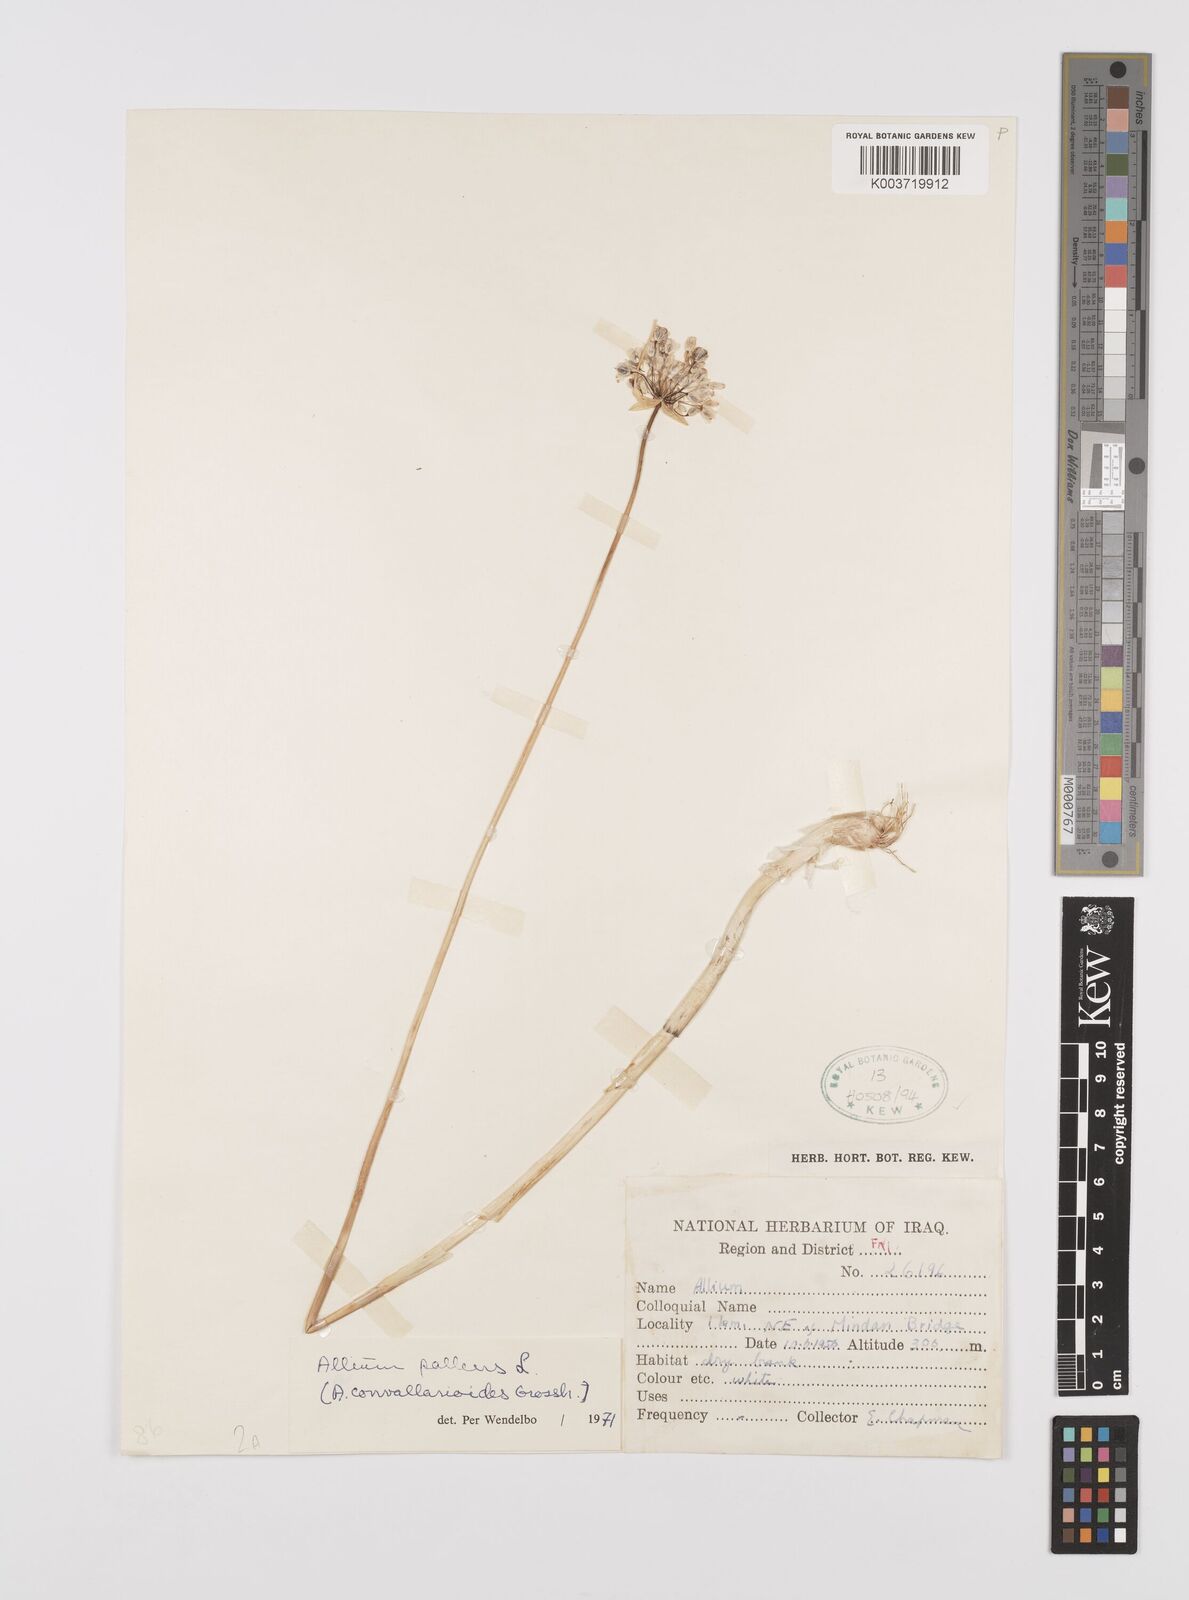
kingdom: Plantae
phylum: Tracheophyta
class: Liliopsida
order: Asparagales
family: Amaryllidaceae
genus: Allium
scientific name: Allium pallens
